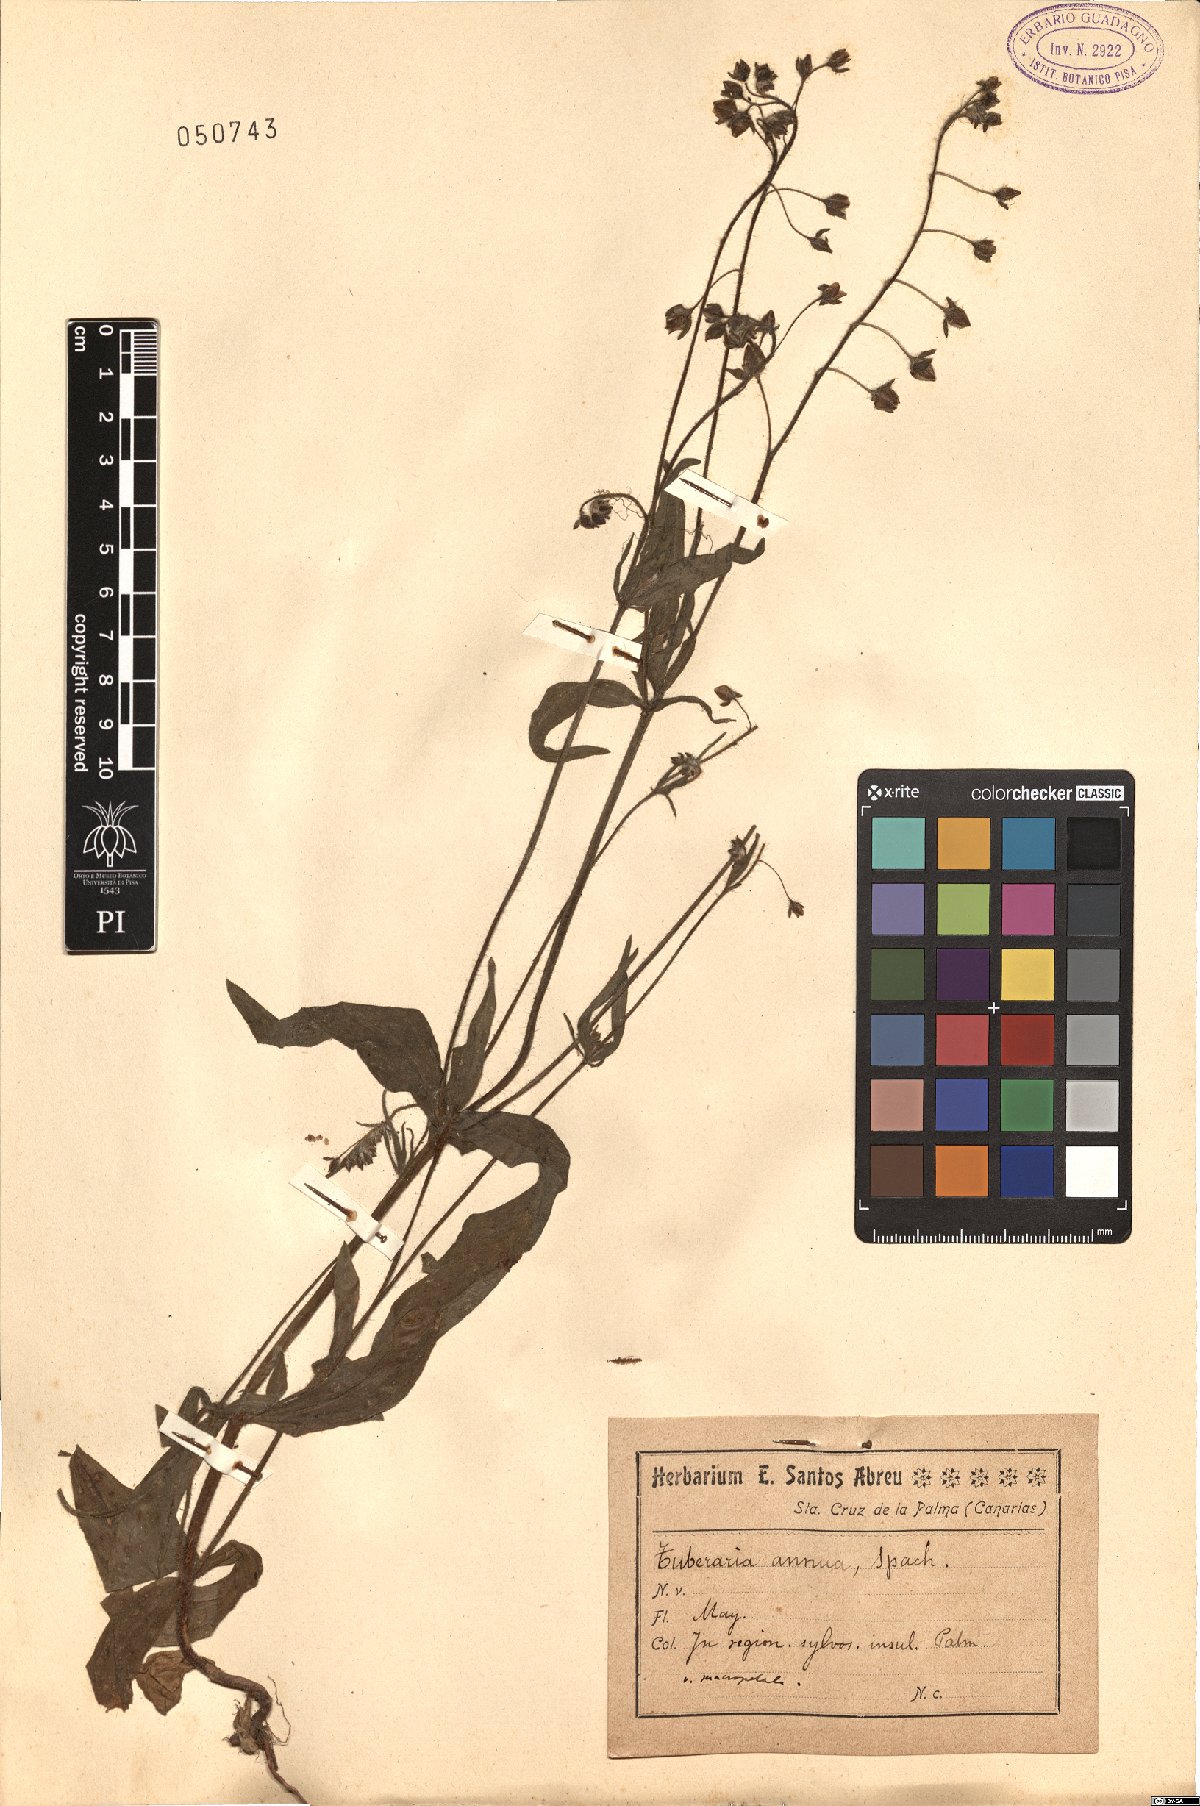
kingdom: Plantae
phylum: Tracheophyta
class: Magnoliopsida
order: Malvales
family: Cistaceae
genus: Tuberaria
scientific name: Tuberaria guttata
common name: Spotted rock-rose
